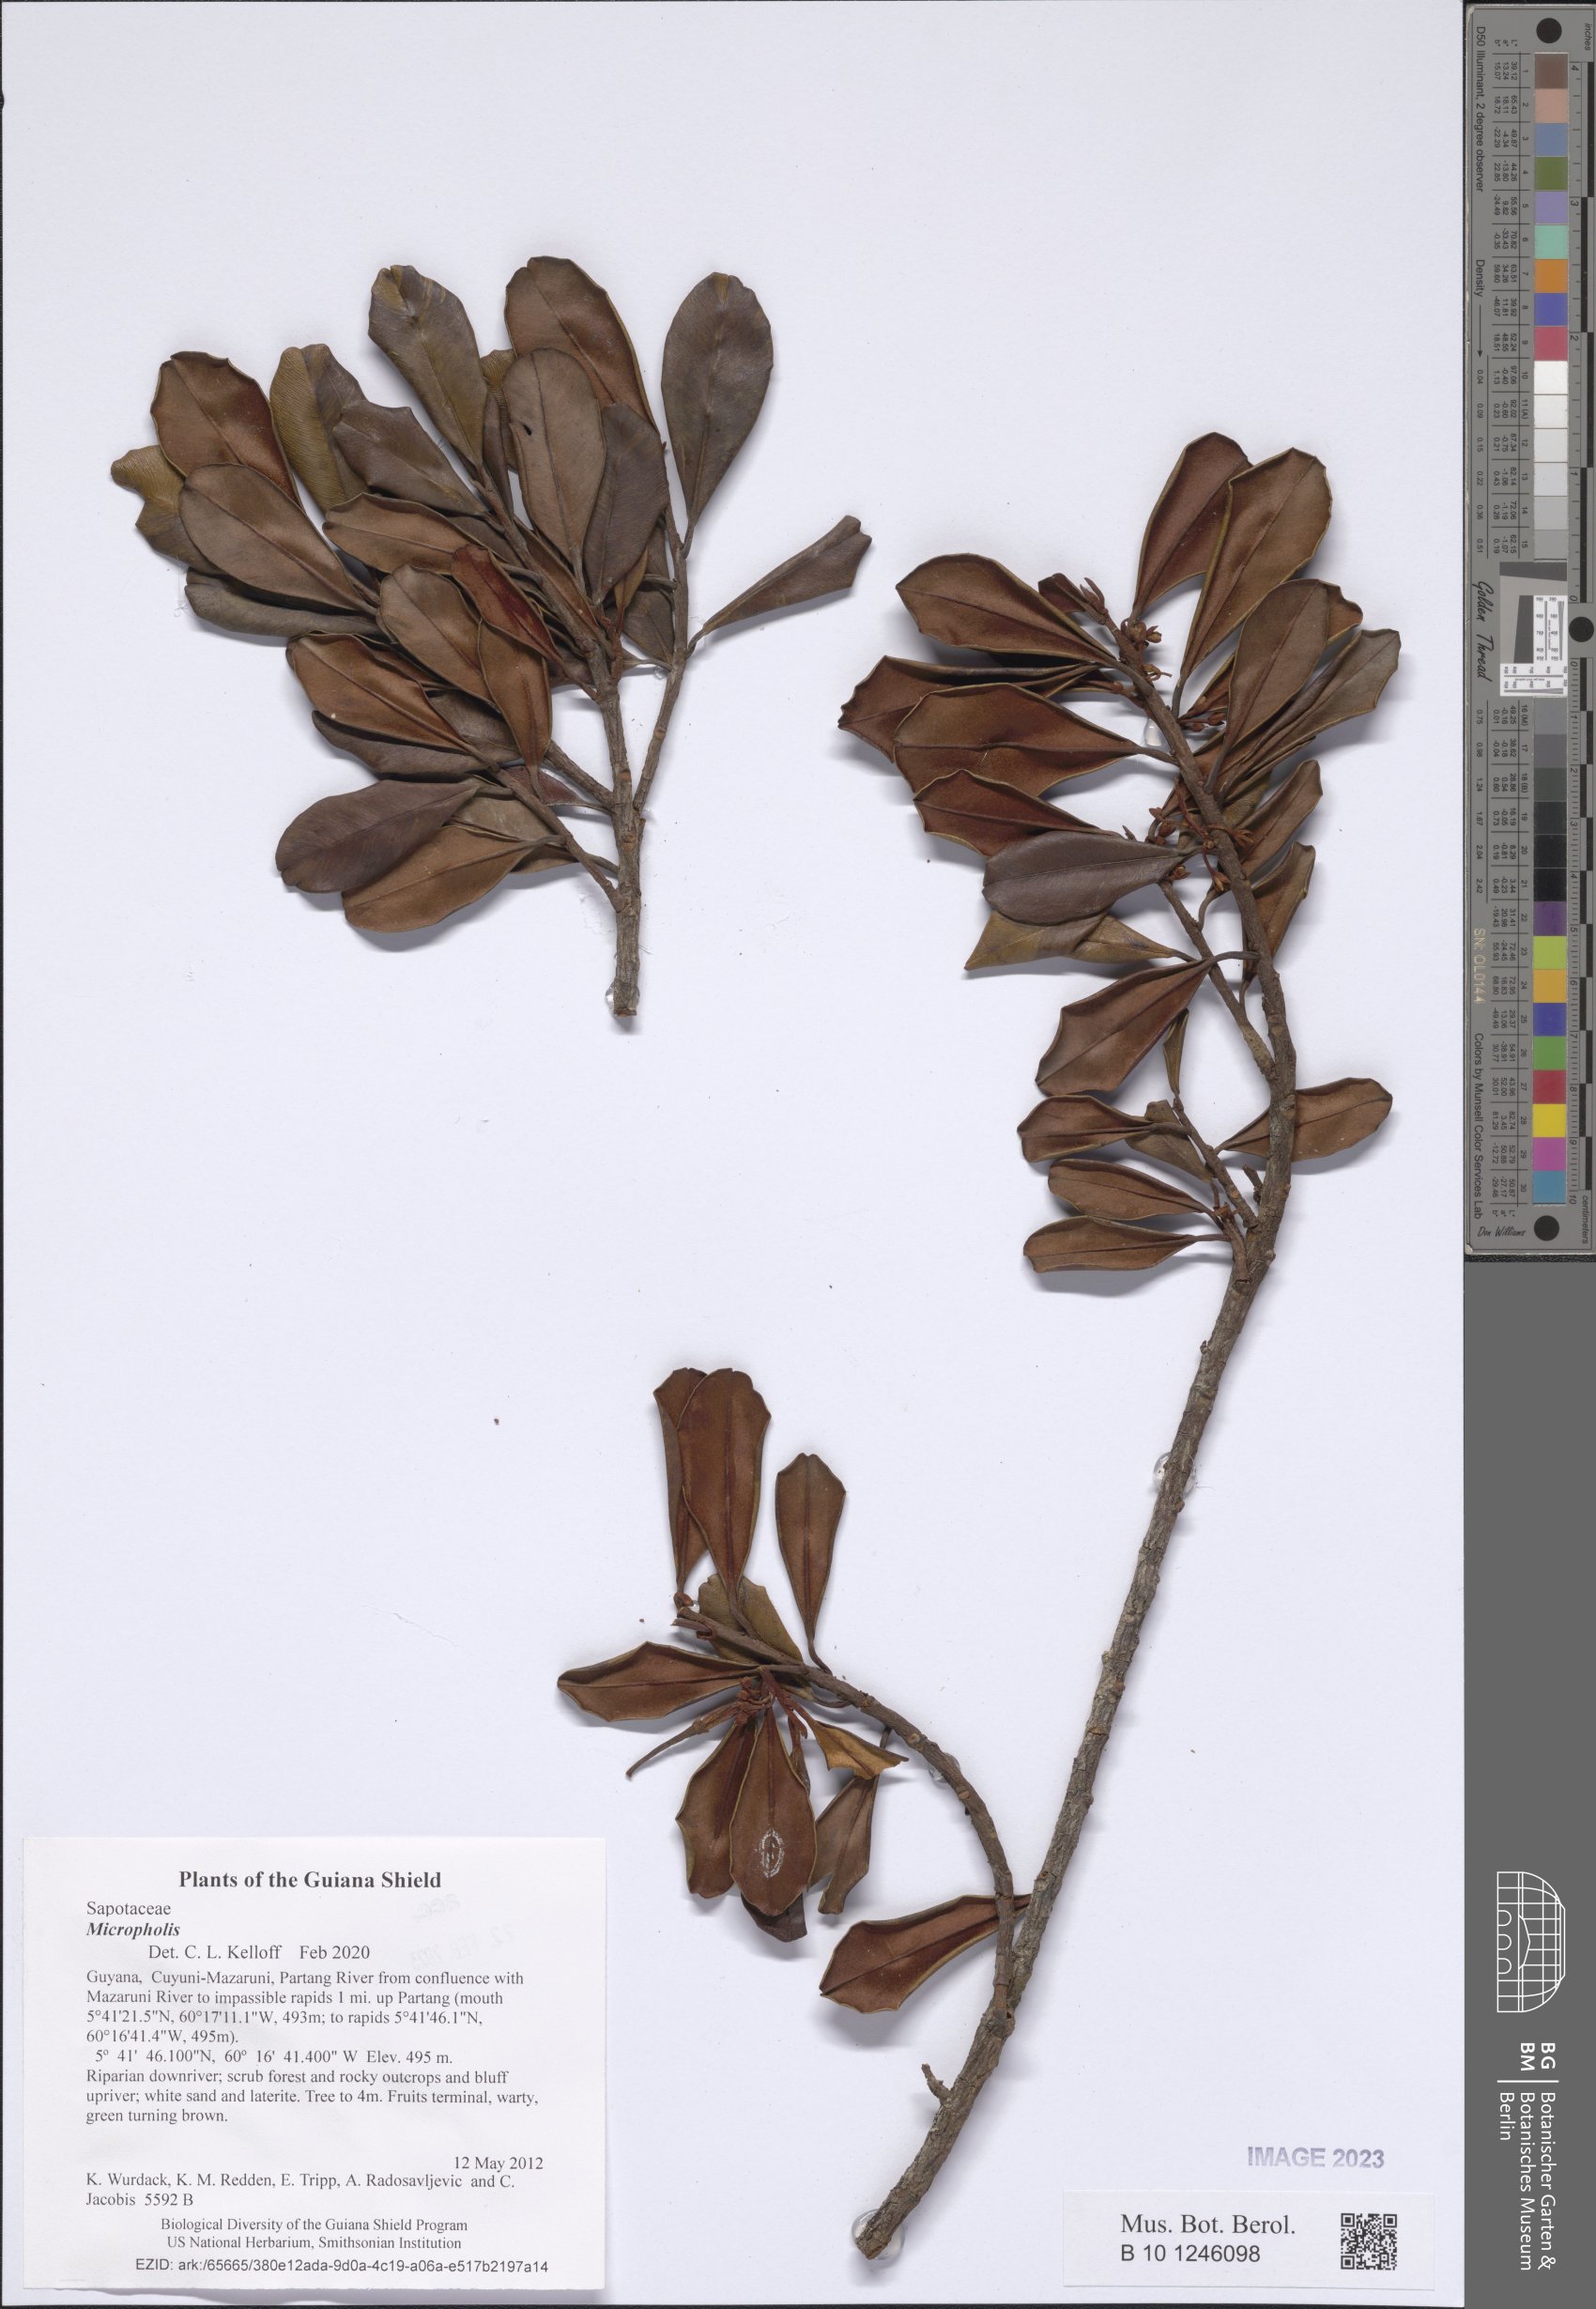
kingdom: Plantae
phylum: Tracheophyta
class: Magnoliopsida
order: Ericales
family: Sapotaceae
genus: Micropholis
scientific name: Micropholis
